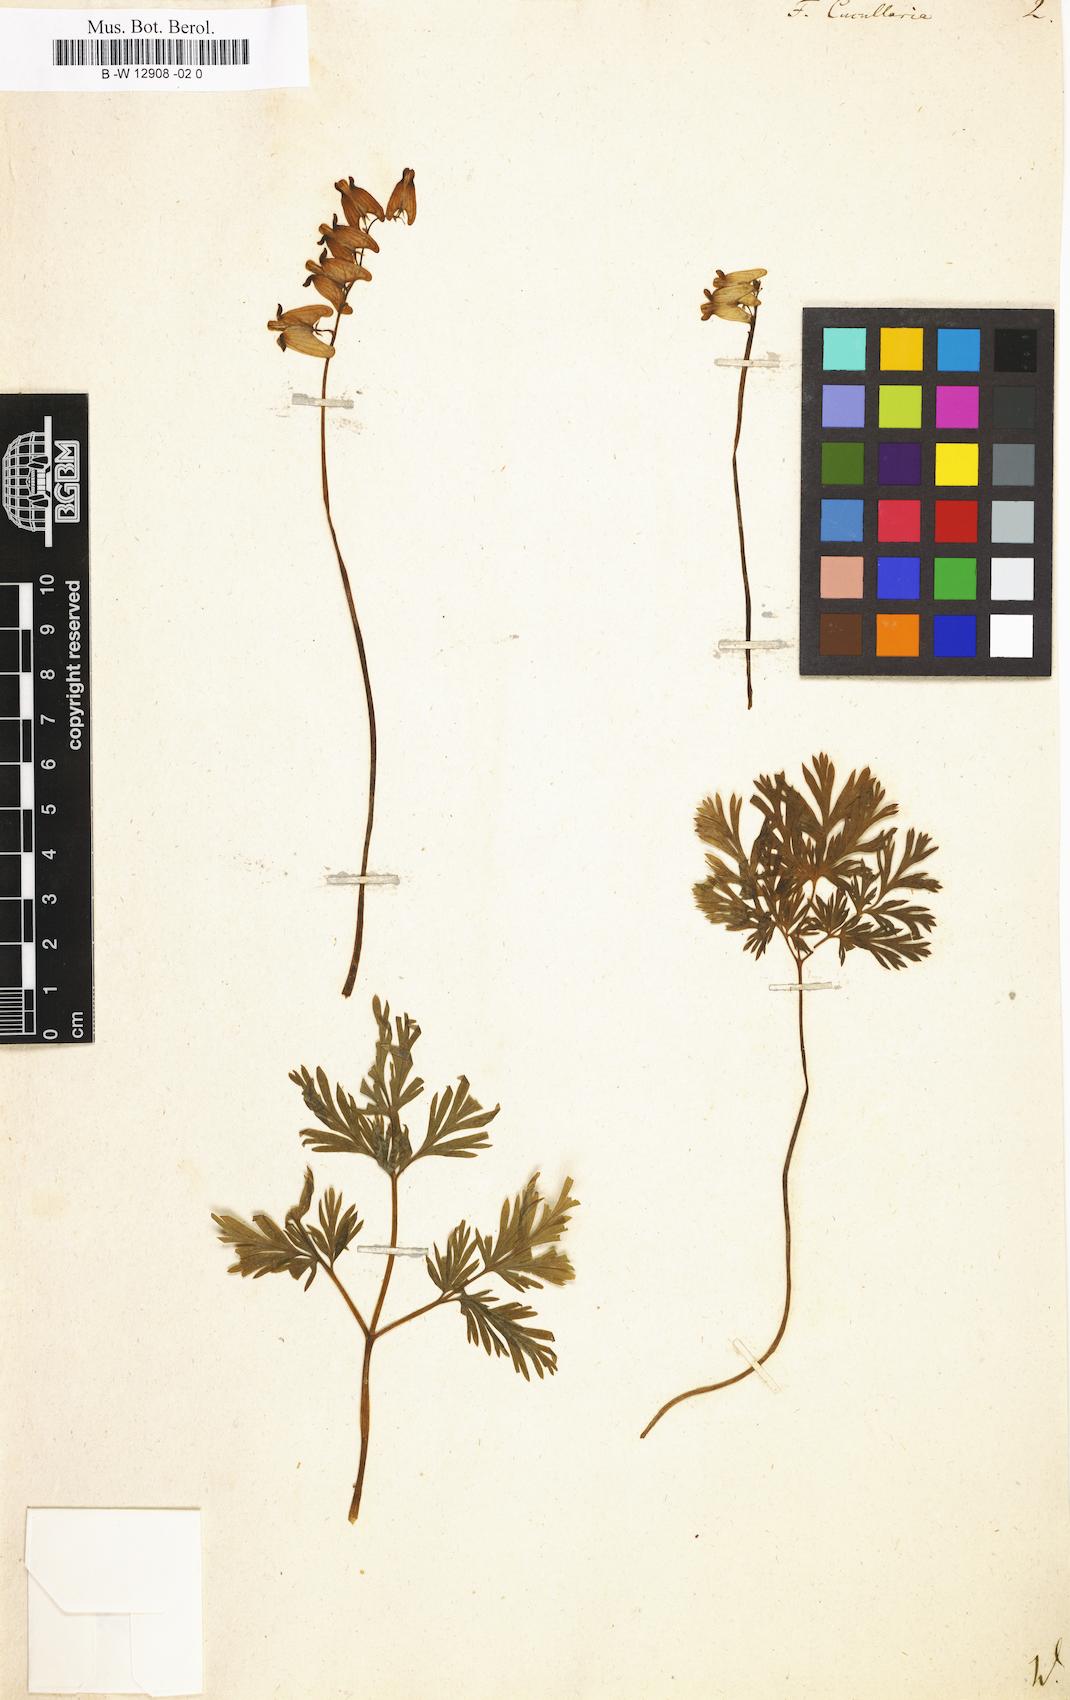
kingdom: Plantae
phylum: Tracheophyta
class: Magnoliopsida
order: Ranunculales
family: Papaveraceae
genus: Dicentra
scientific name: Dicentra cucullaria
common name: Dutchman's breeches
